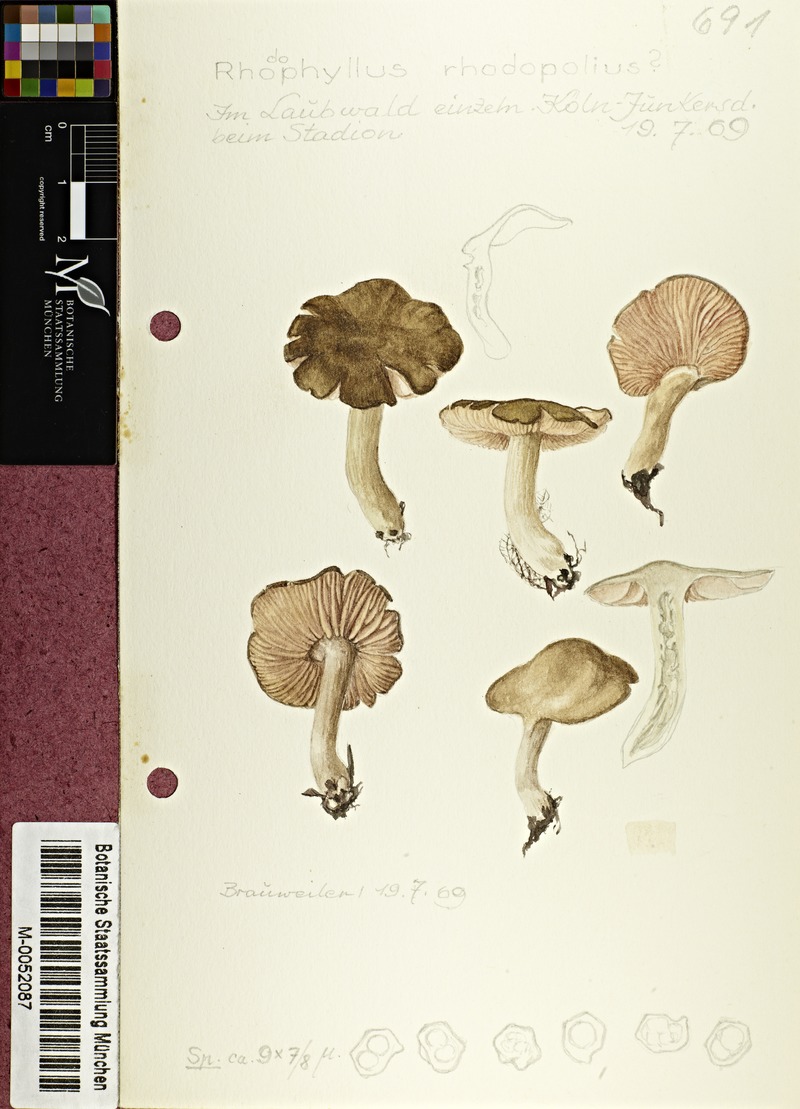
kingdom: Fungi
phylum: Basidiomycota
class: Agaricomycetes
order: Agaricales
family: Entolomataceae
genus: Entoloma
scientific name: Entoloma rhodopolium
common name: Wood pinkgill
